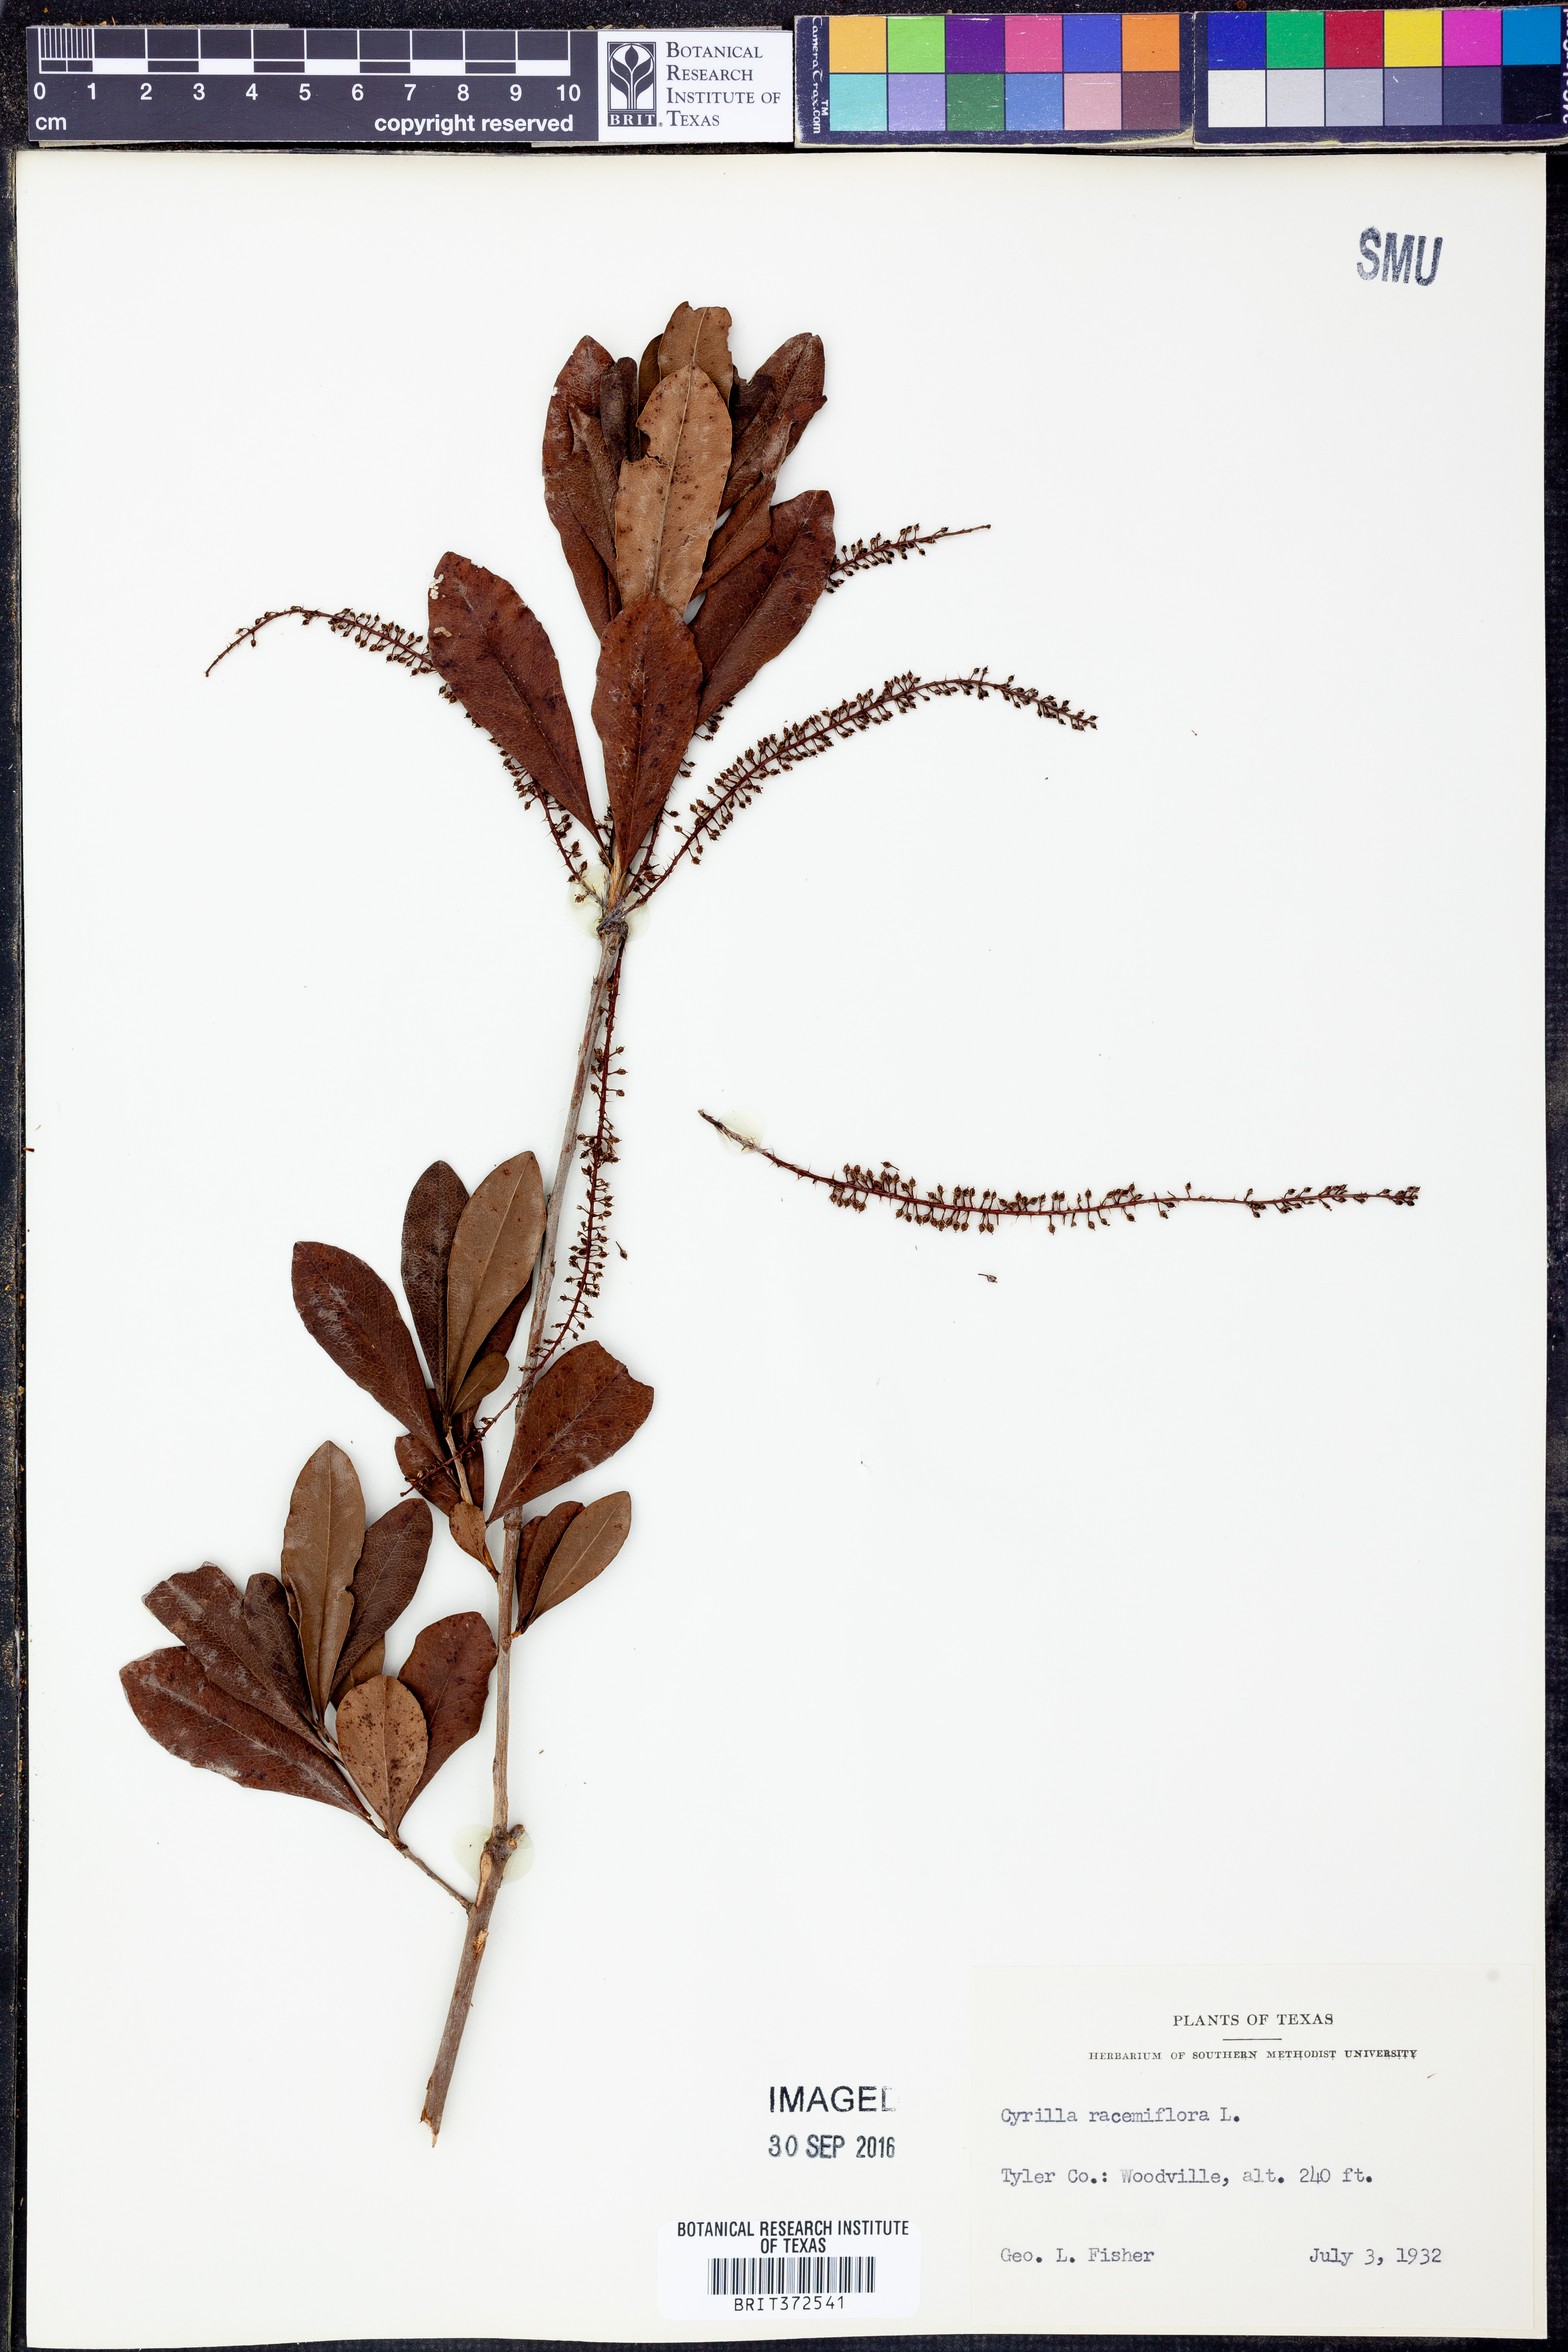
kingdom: Plantae
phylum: Tracheophyta
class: Magnoliopsida
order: Ericales
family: Cyrillaceae
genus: Cyrilla
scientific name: Cyrilla racemiflora
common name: Black titi
